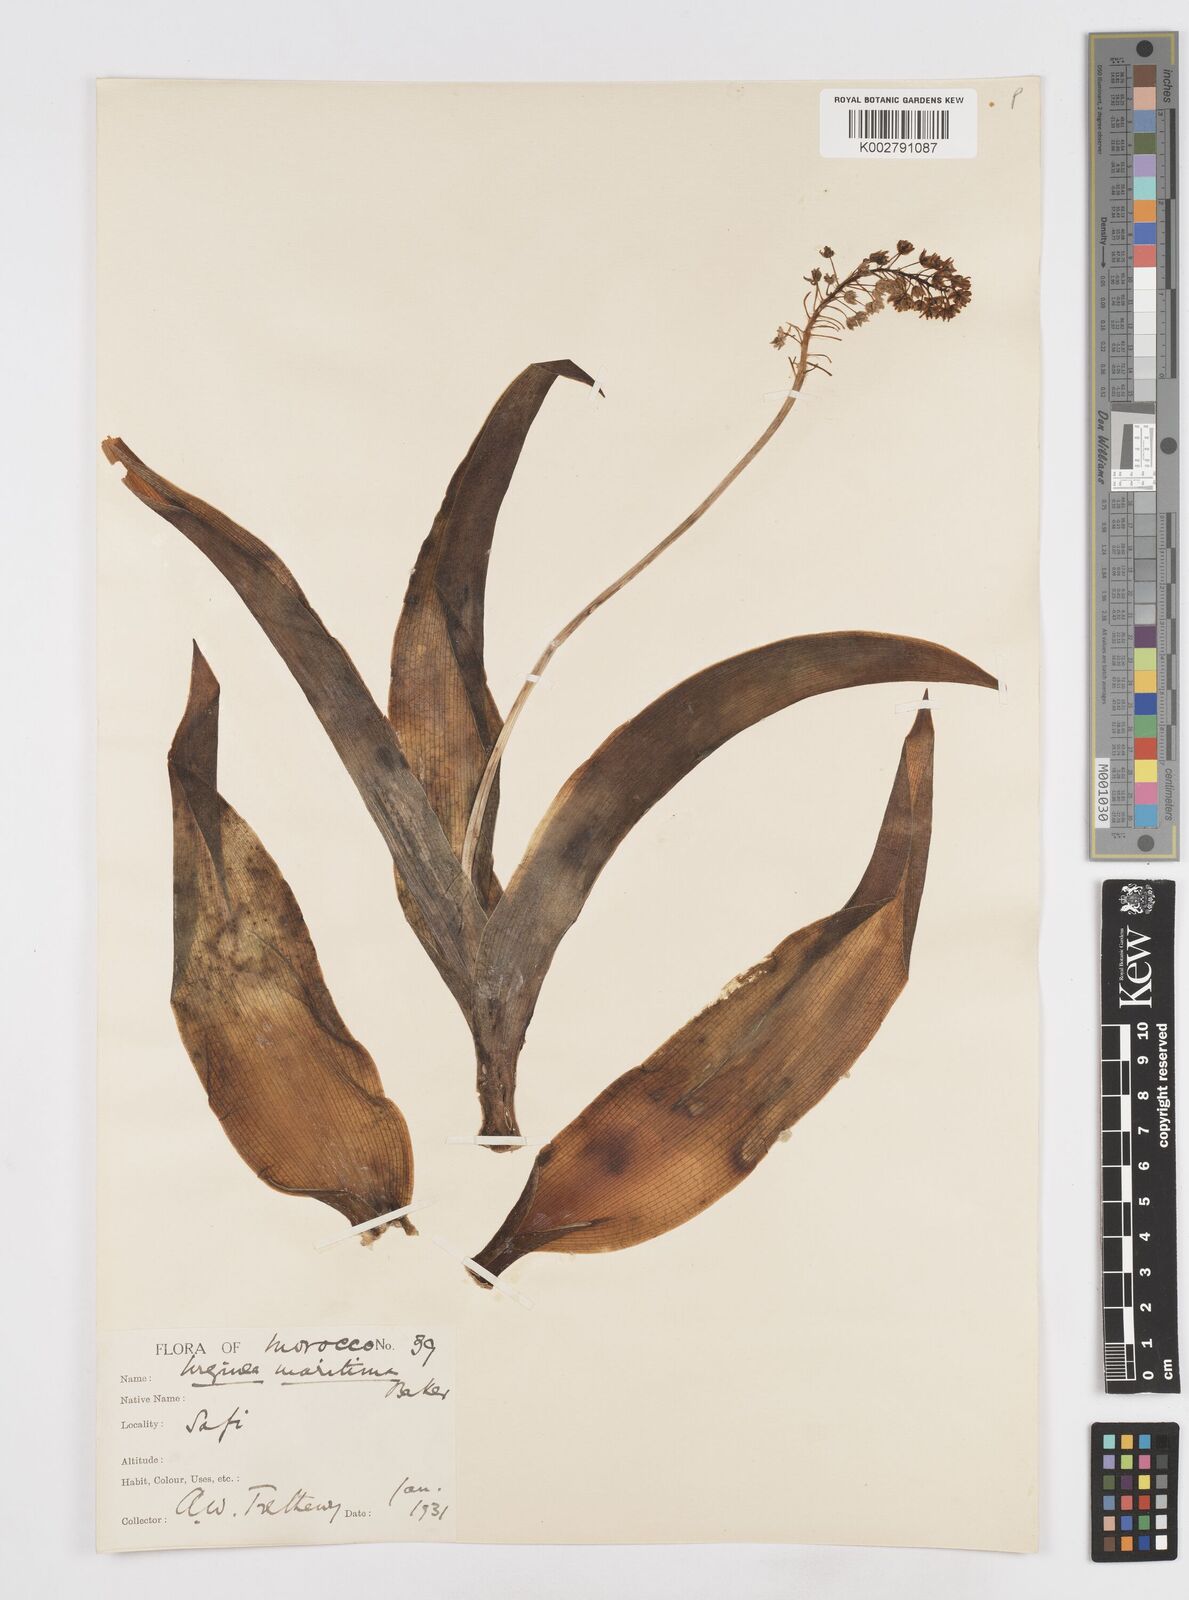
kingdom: Plantae
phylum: Tracheophyta
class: Liliopsida
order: Asparagales
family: Asparagaceae
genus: Scilla
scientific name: Scilla latifolia
